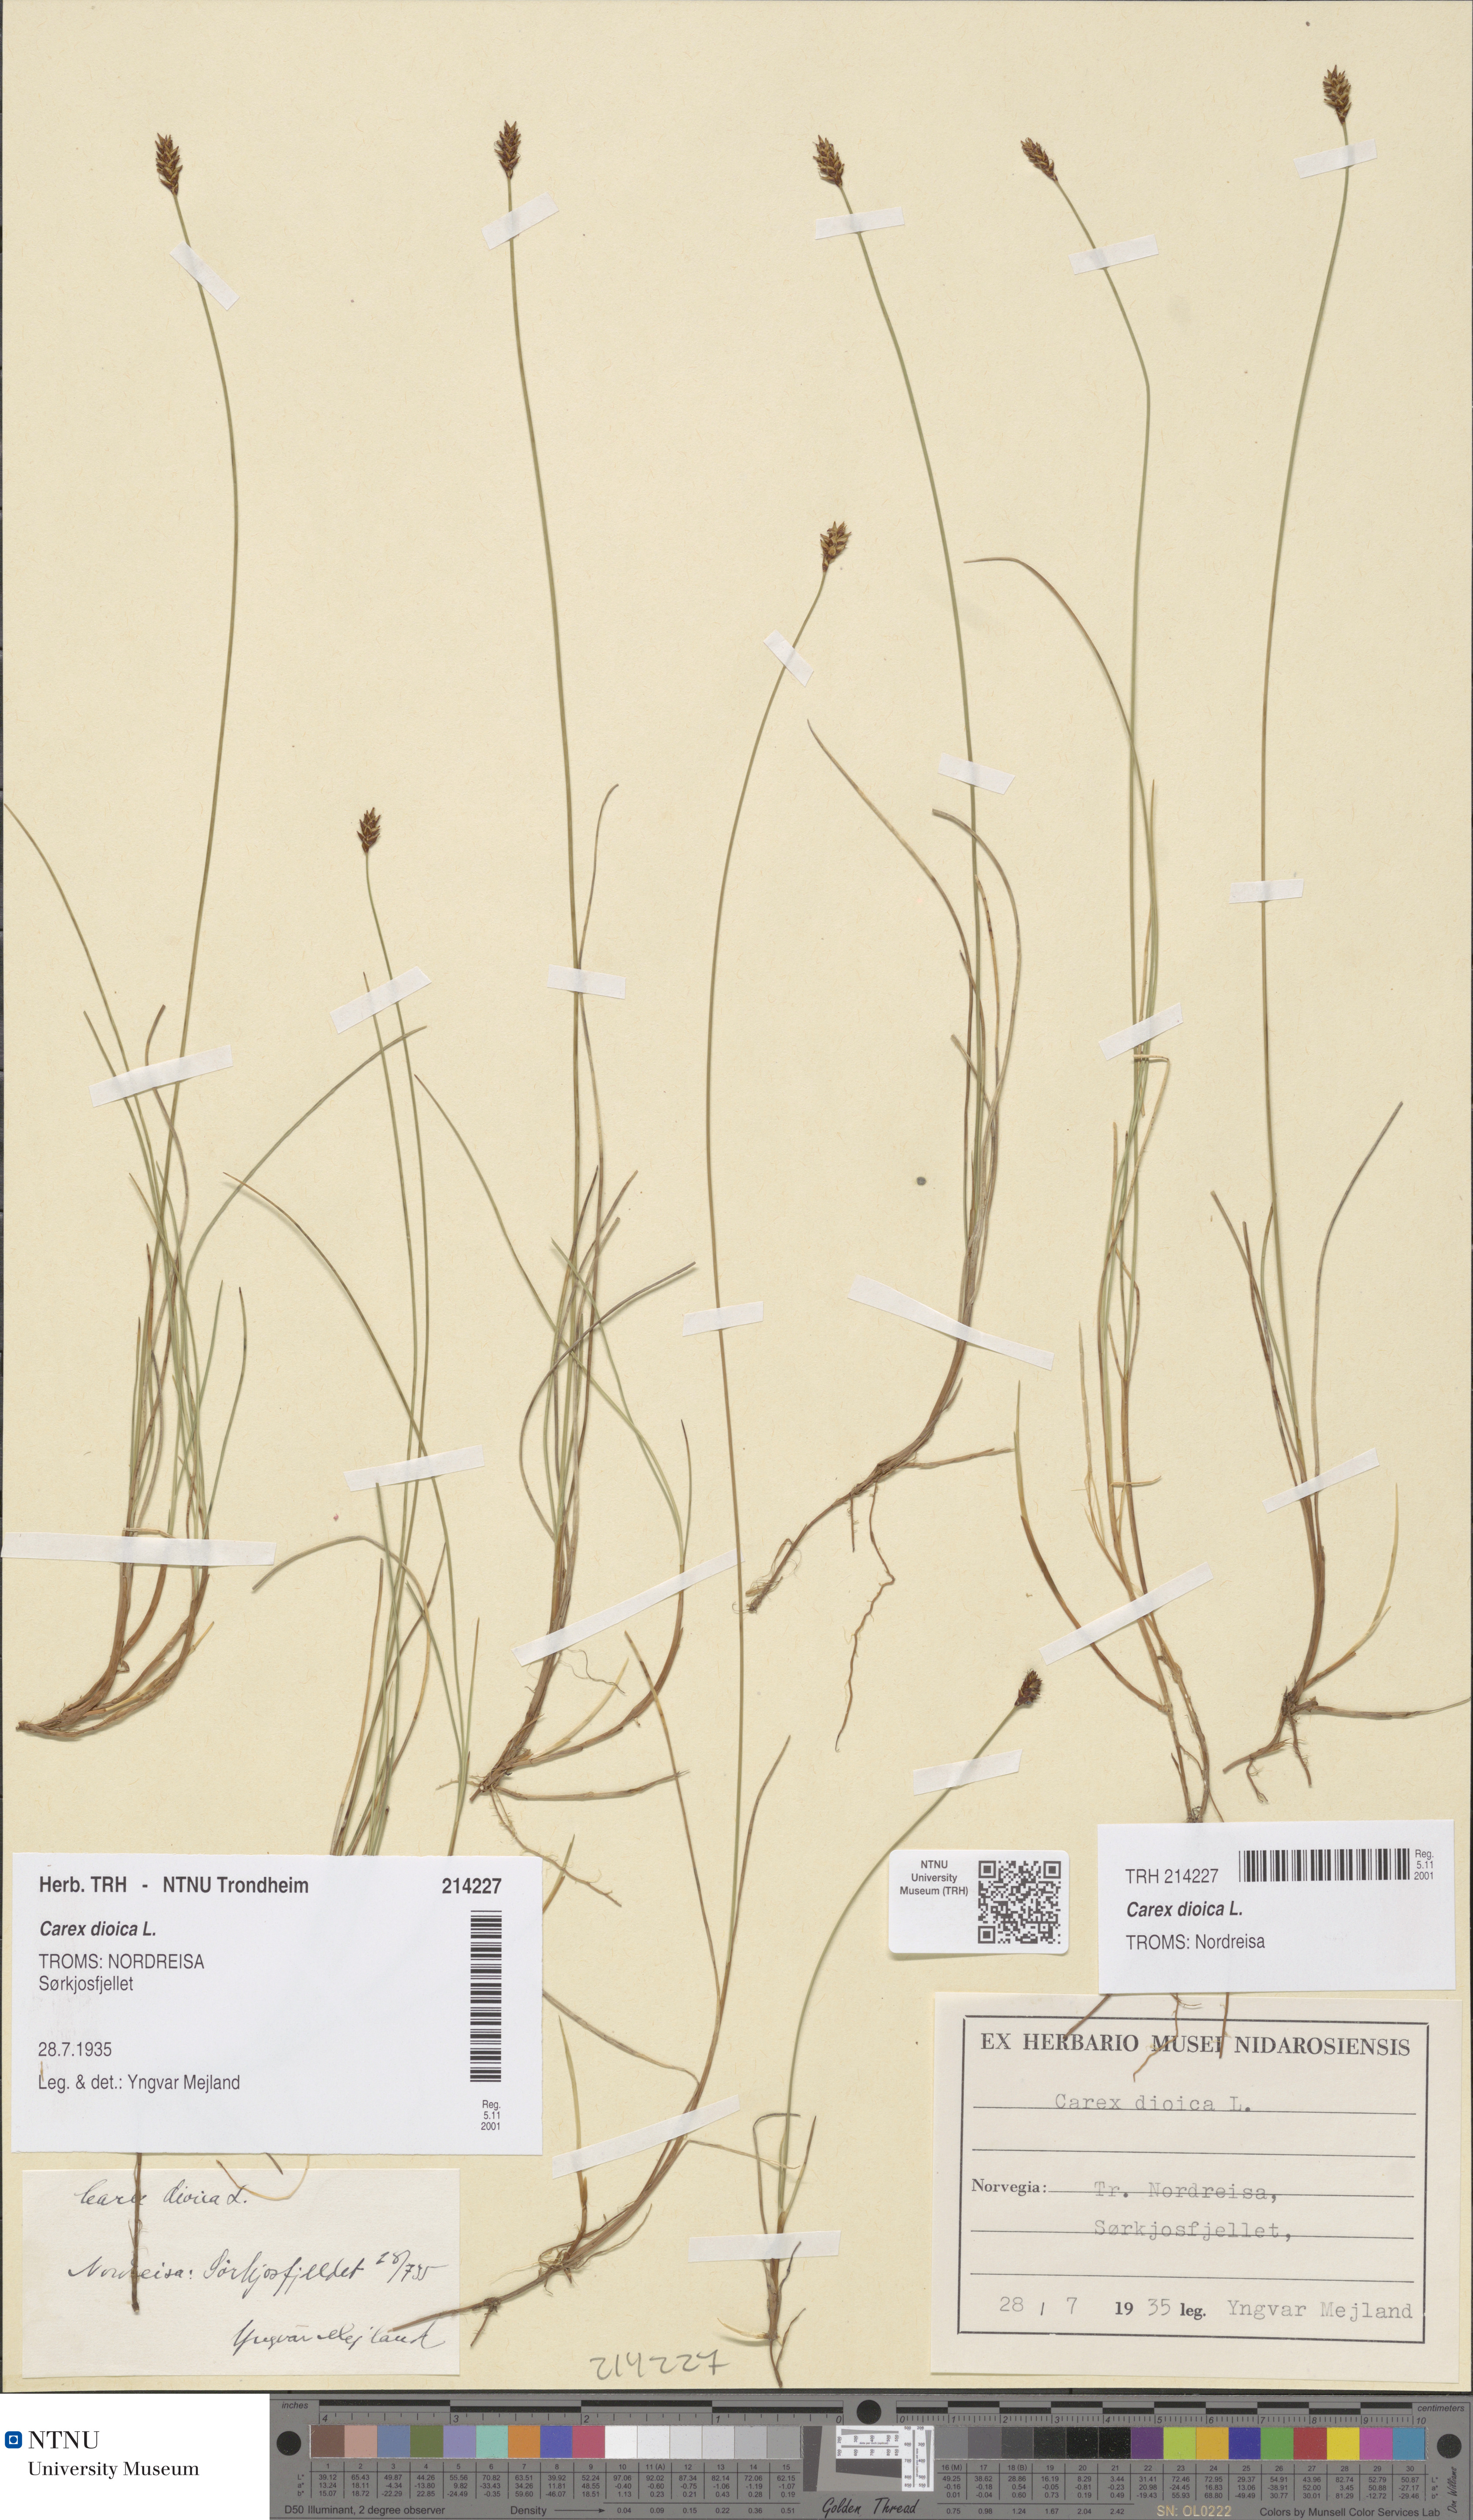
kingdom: Plantae
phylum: Tracheophyta
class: Liliopsida
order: Poales
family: Cyperaceae
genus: Carex
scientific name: Carex dioica
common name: Dioecious sedge
